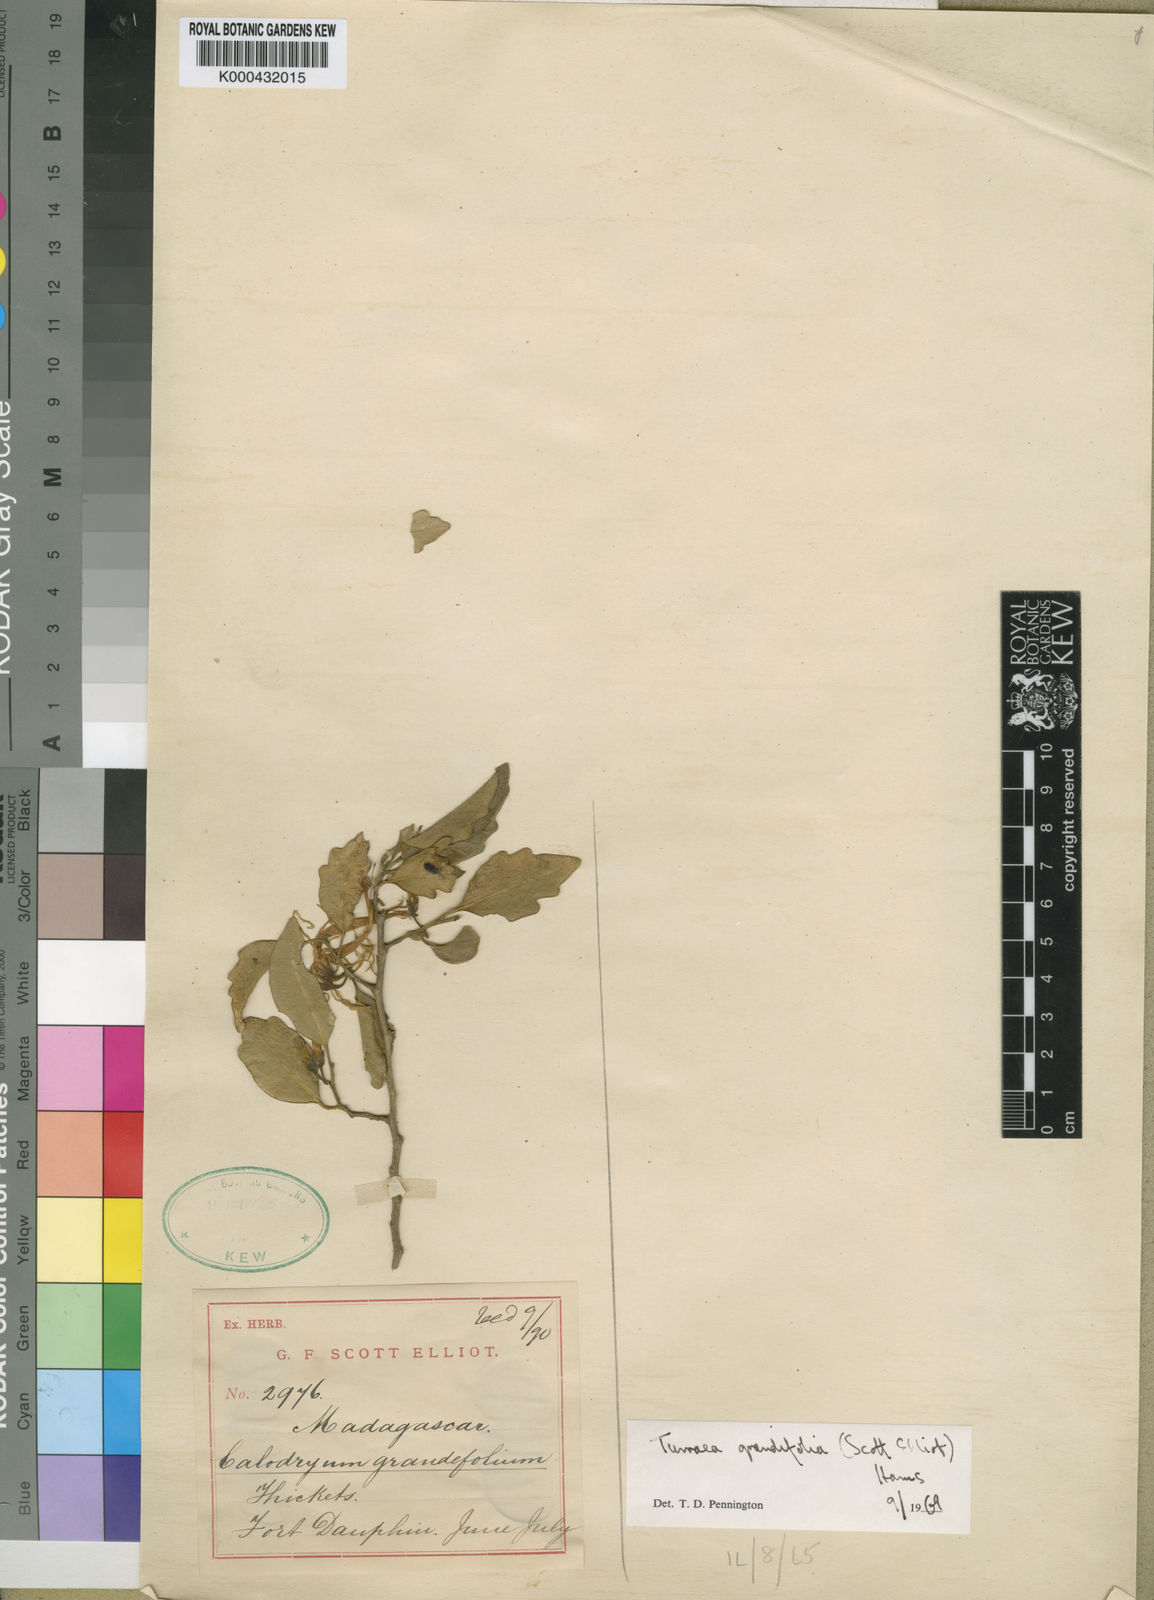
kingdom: Plantae
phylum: Tracheophyta
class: Magnoliopsida
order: Sapindales
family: Meliaceae
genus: Turraea
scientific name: Turraea lanceolata
